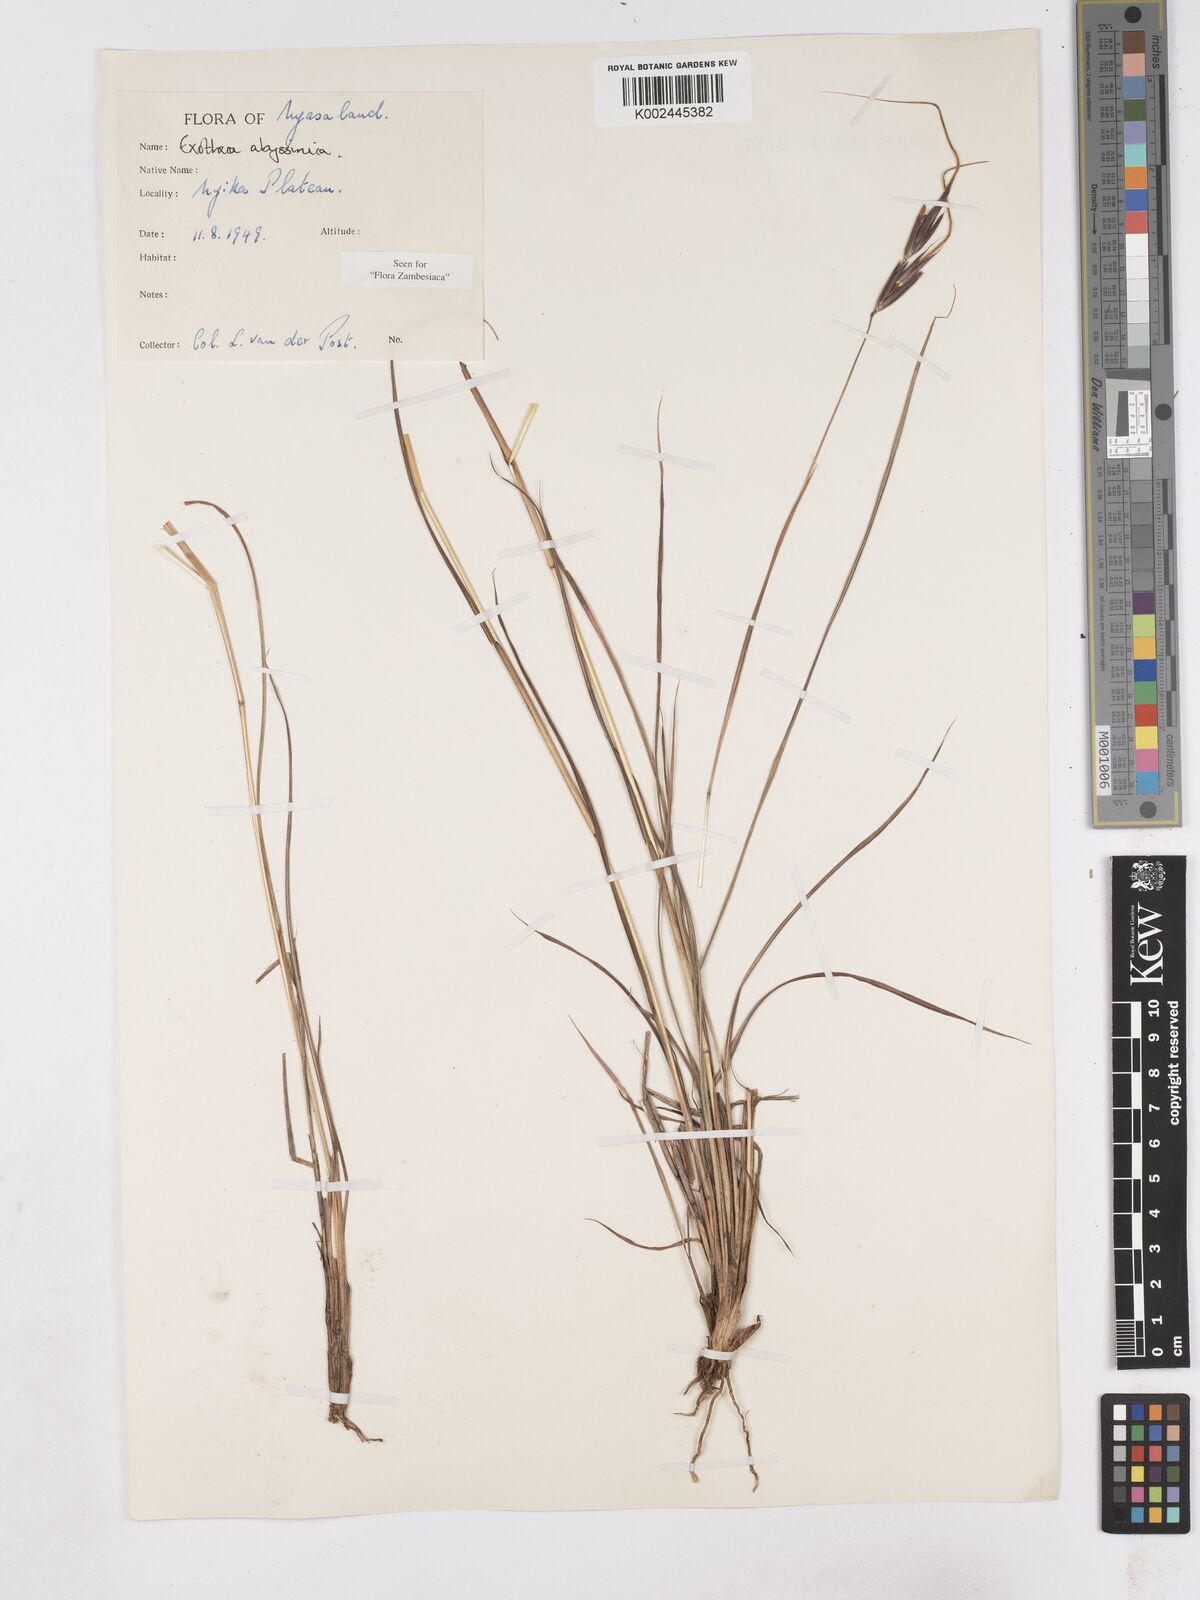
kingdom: Plantae
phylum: Tracheophyta
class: Liliopsida
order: Poales
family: Poaceae
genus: Exotheca
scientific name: Exotheca abyssinica
